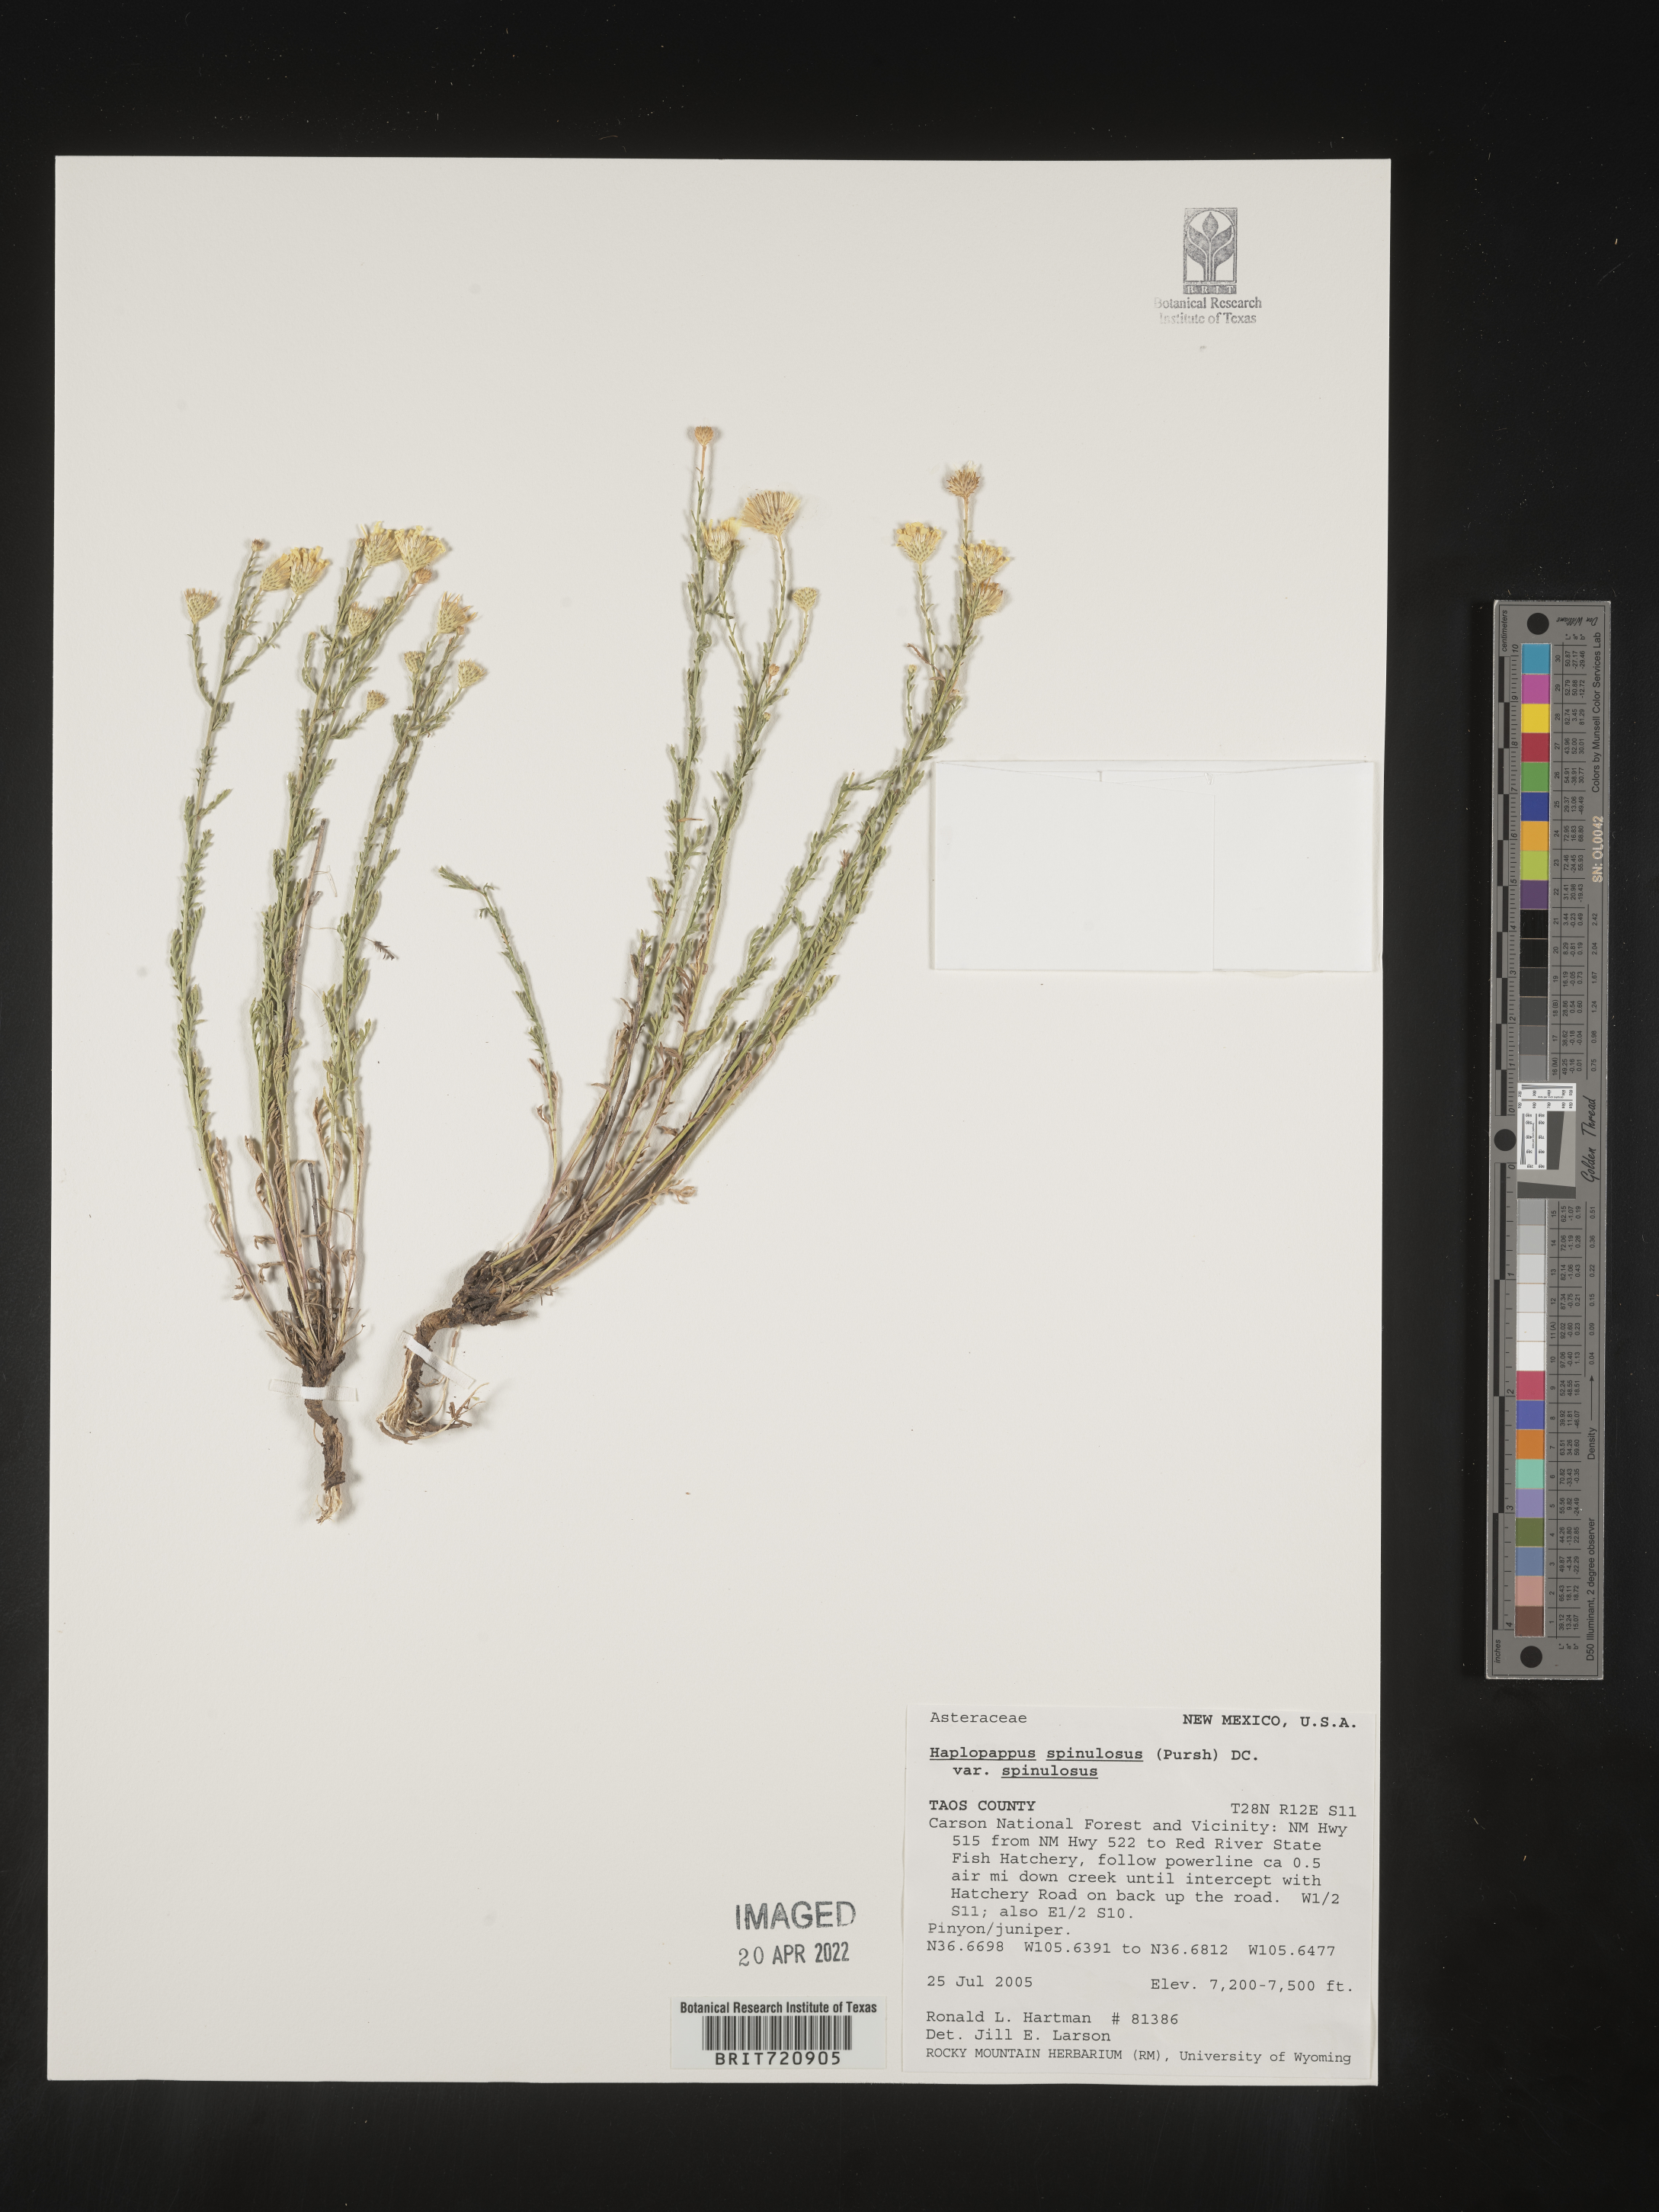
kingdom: Plantae
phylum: Tracheophyta
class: Magnoliopsida
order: Asterales
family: Asteraceae
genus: Haplopappus
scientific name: Haplopappus
